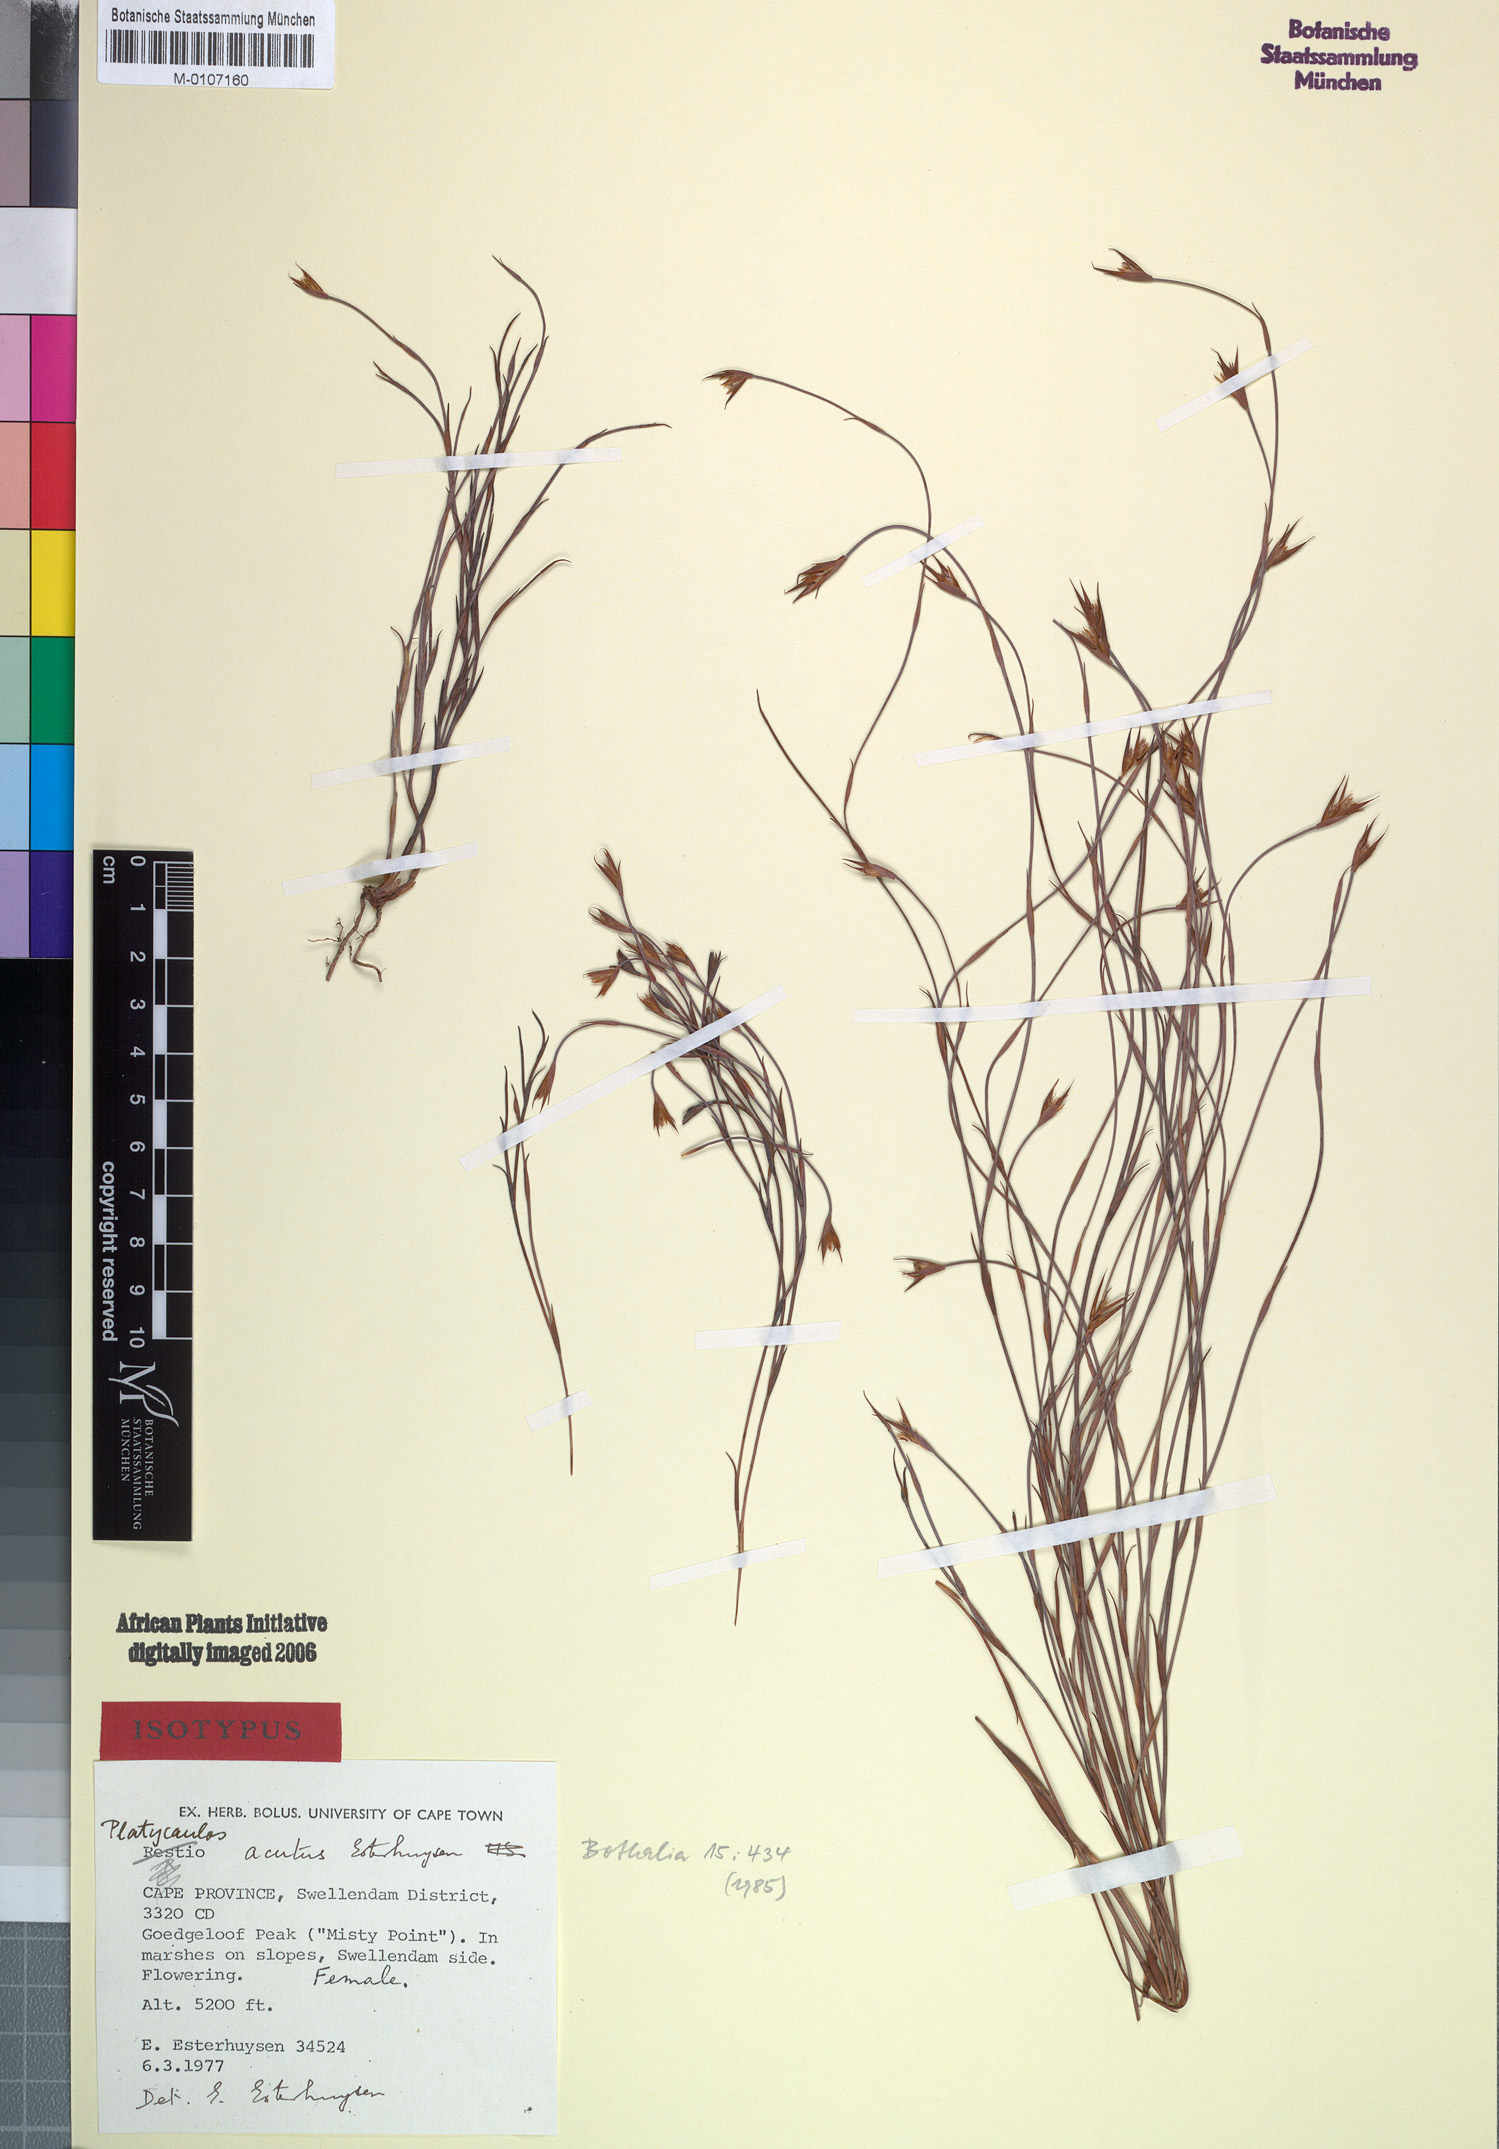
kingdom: Plantae
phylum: Tracheophyta
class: Liliopsida
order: Poales
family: Restionaceae
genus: Platycaulos
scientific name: Platycaulos acutus
